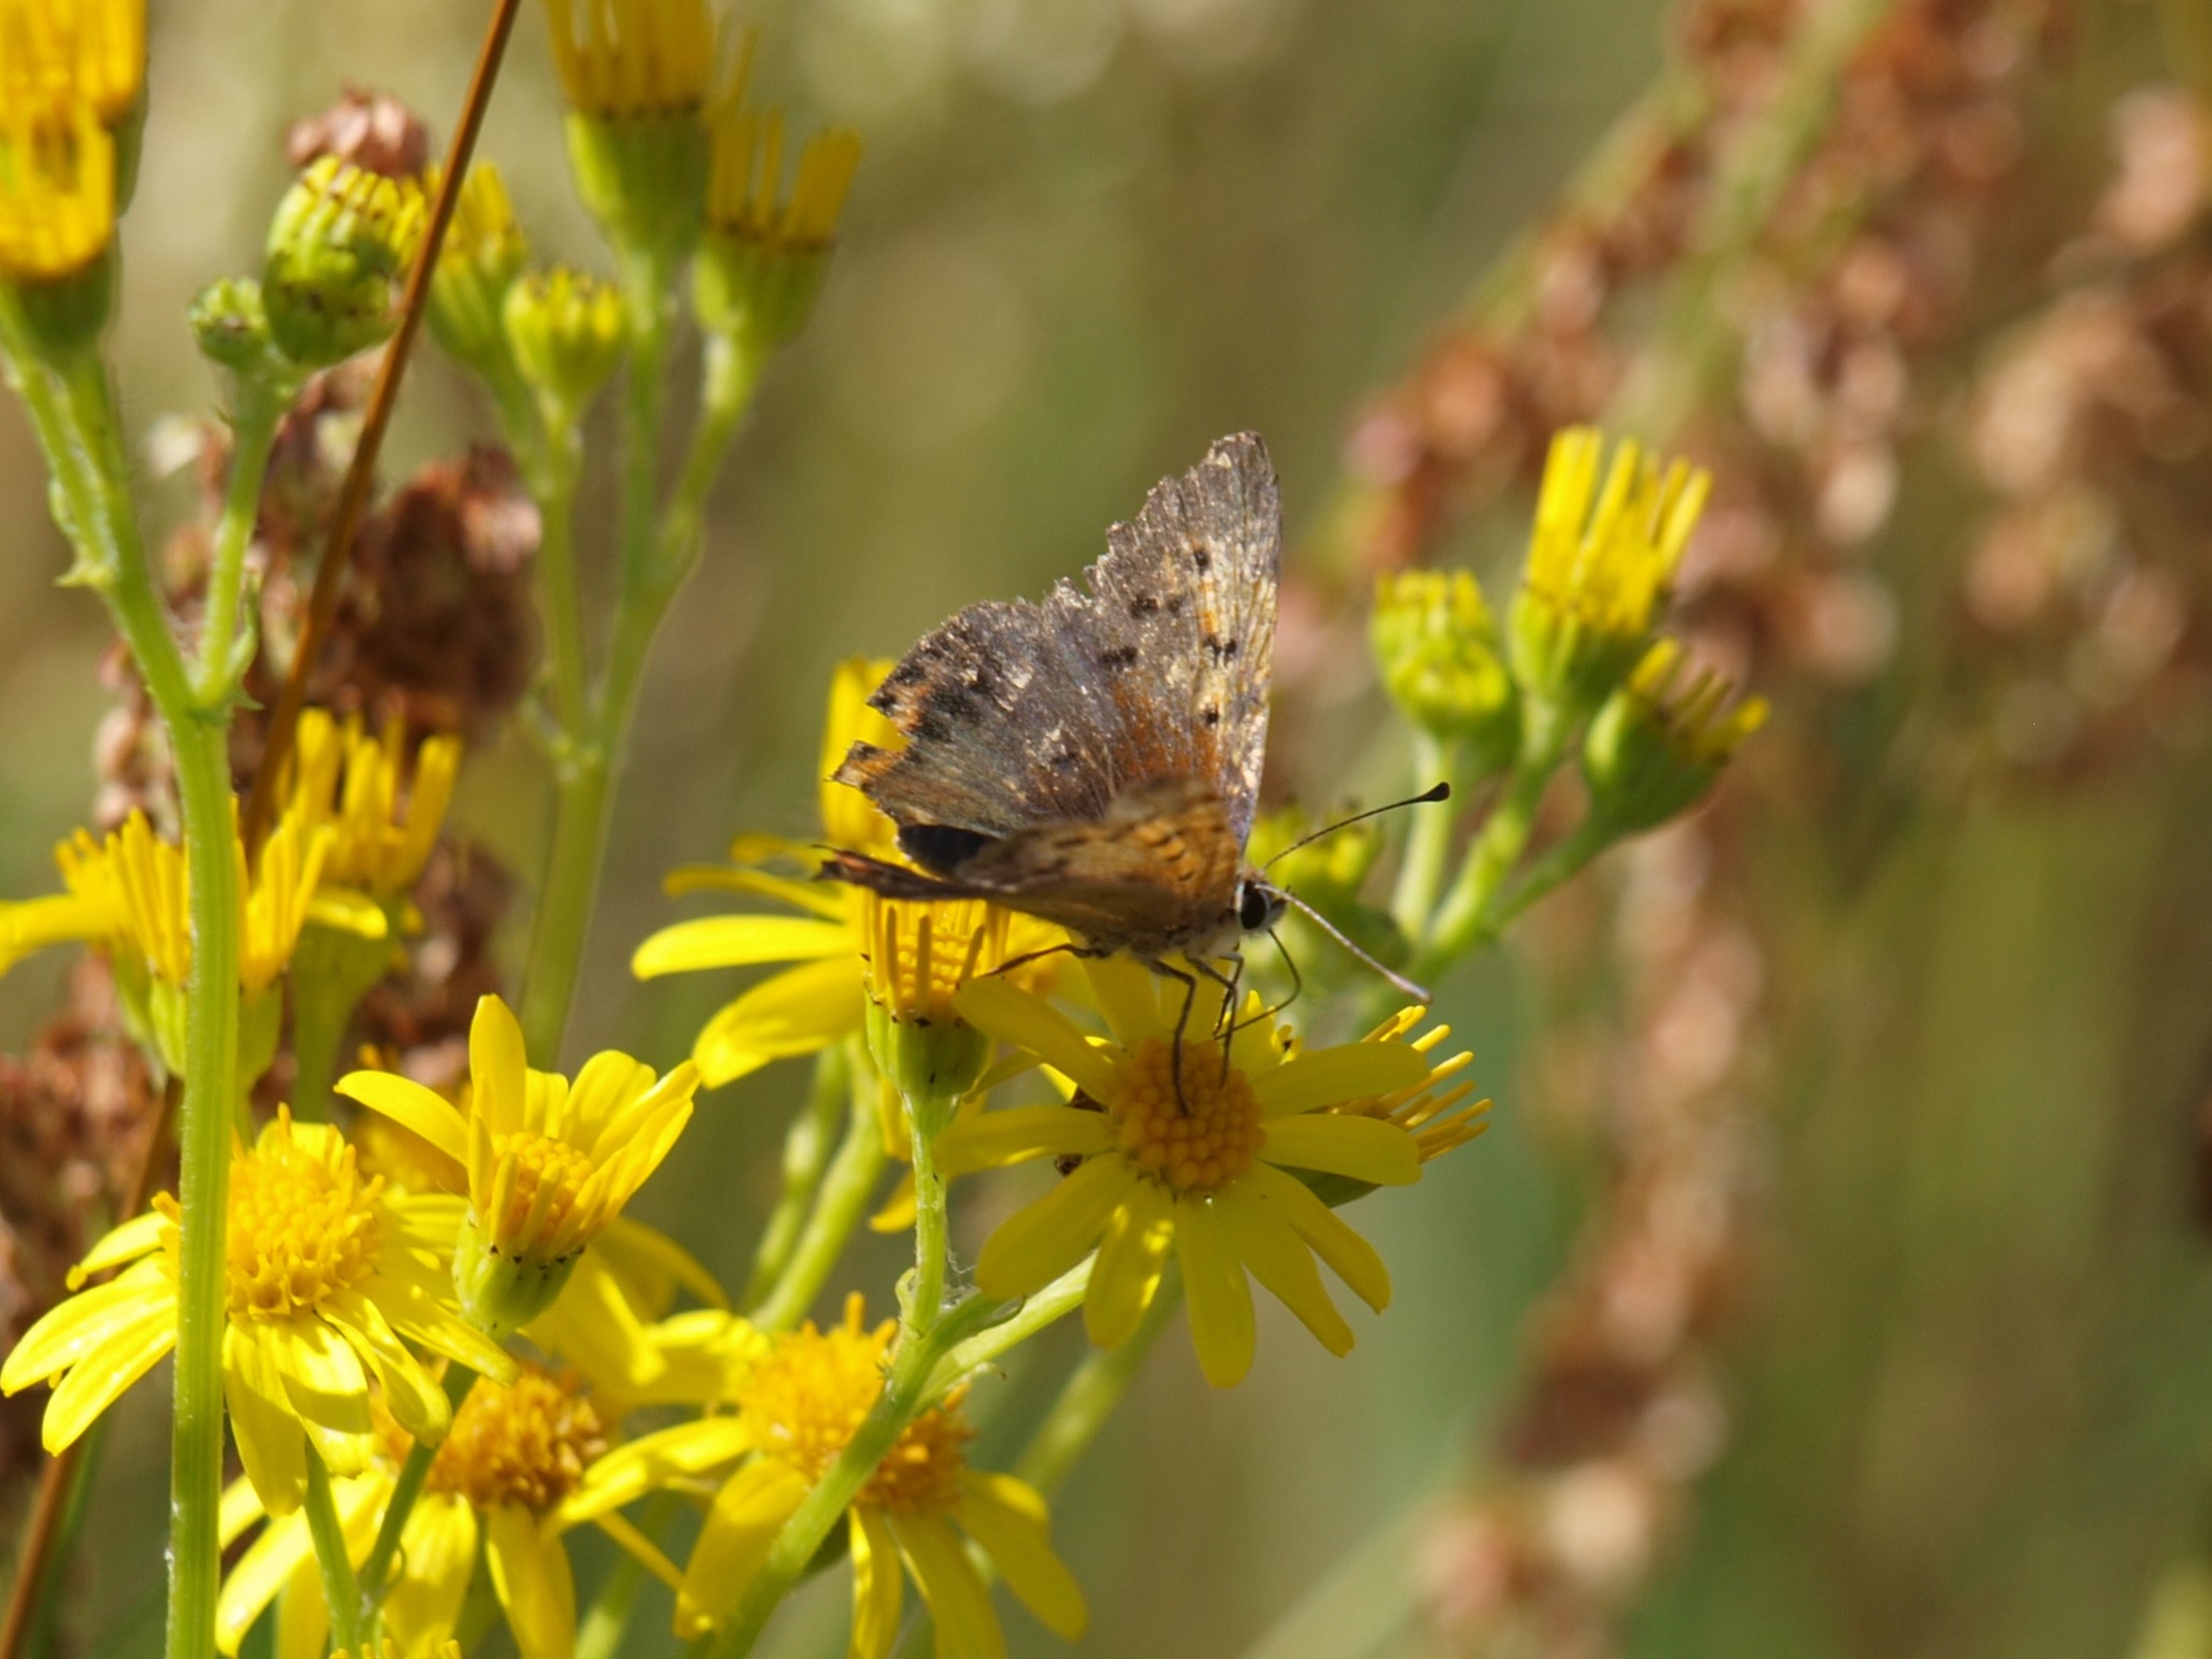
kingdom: Animalia
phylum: Arthropoda
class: Insecta
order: Lepidoptera
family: Lycaenidae
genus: Lycaena
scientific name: Lycaena phlaeas
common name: Lille ildfugl
